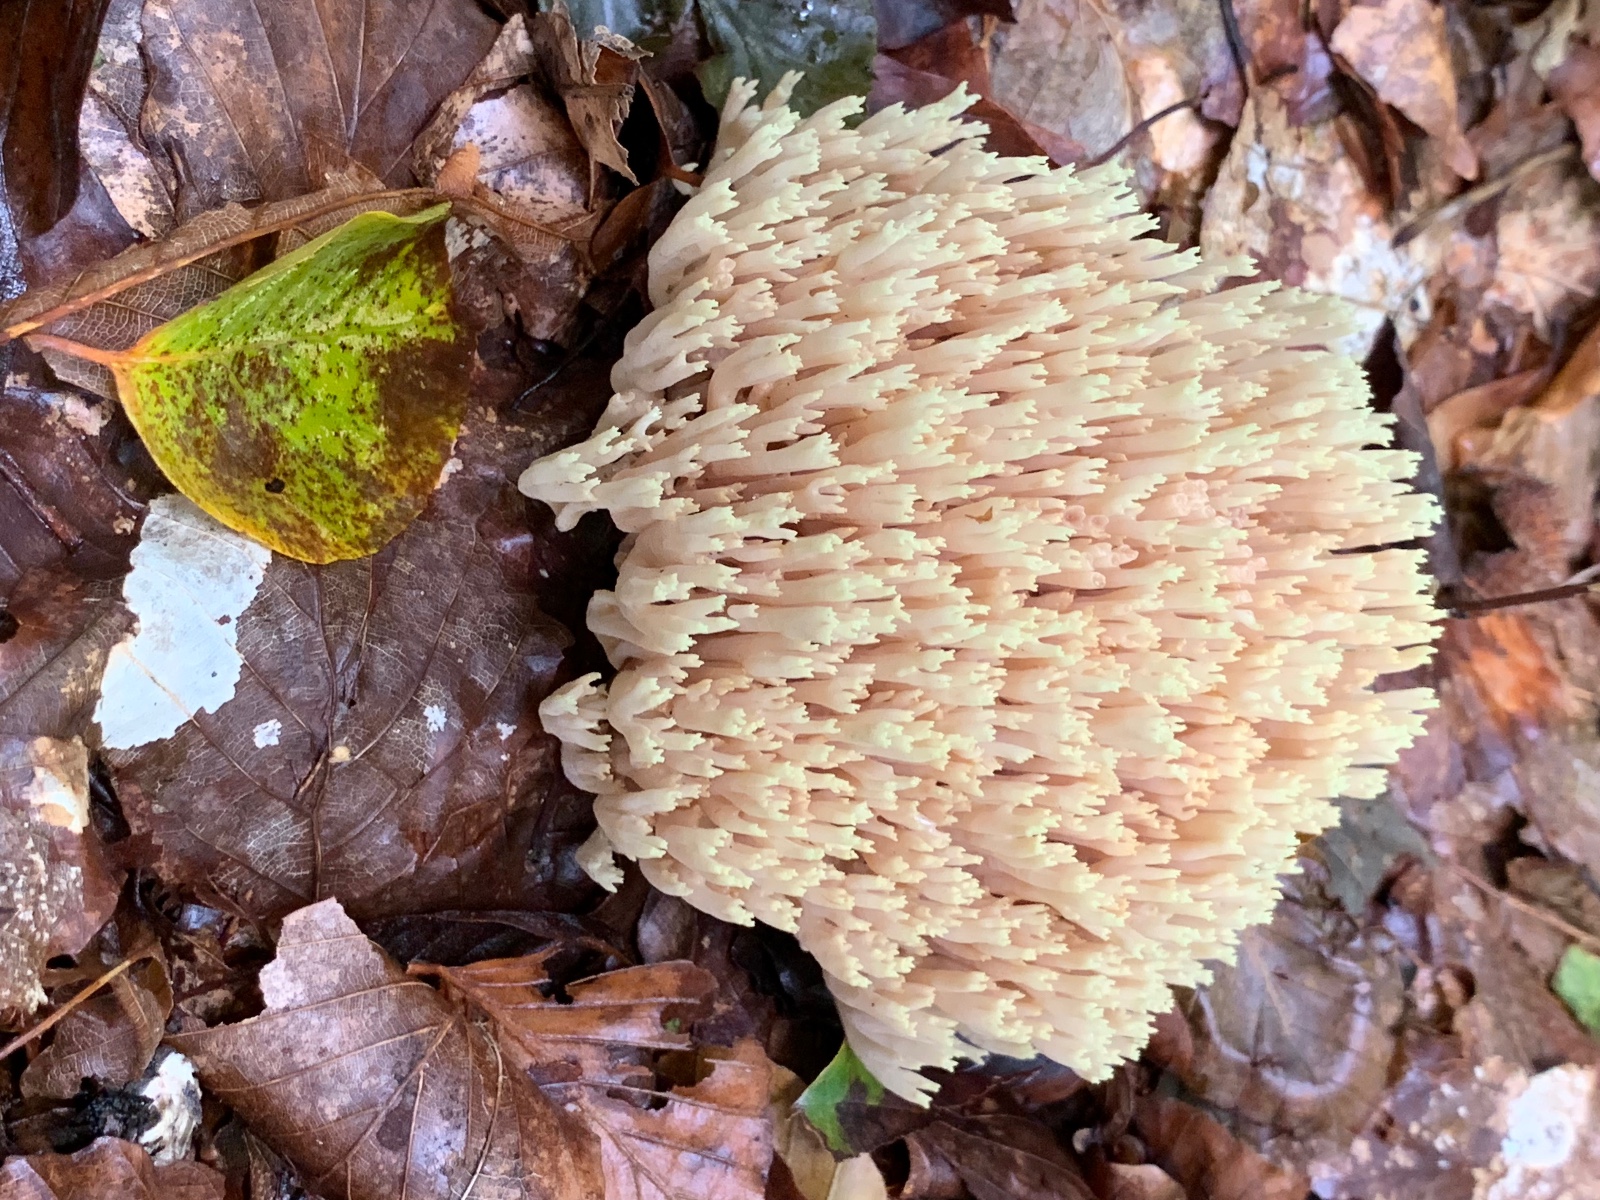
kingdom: Fungi
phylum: Basidiomycota
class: Agaricomycetes
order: Gomphales
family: Gomphaceae
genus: Ramaria
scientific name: Ramaria stricta
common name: rank koralsvamp
